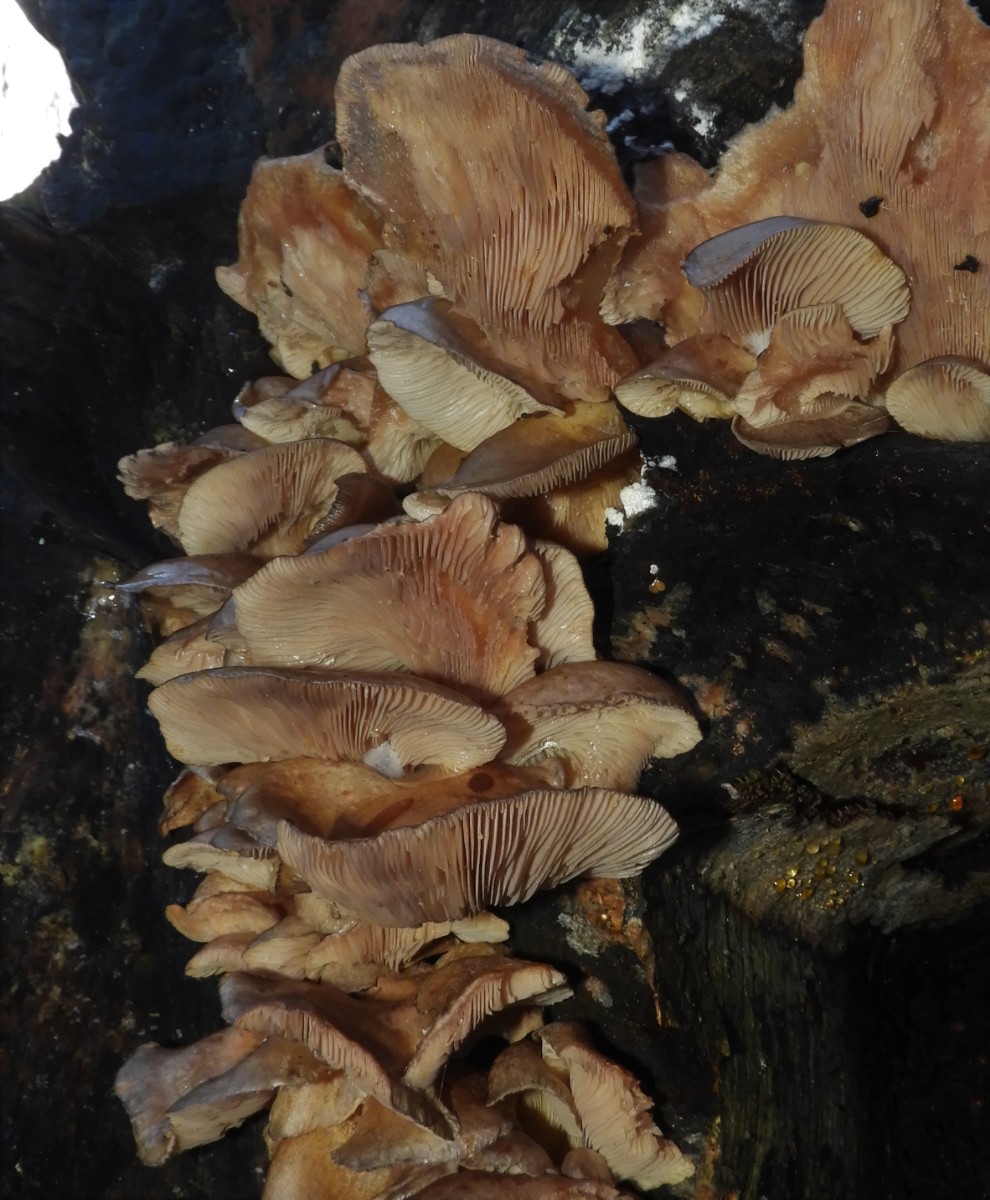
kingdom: Fungi
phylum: Basidiomycota
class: Agaricomycetes
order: Agaricales
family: Pleurotaceae
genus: Pleurotus
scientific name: Pleurotus ostreatus
